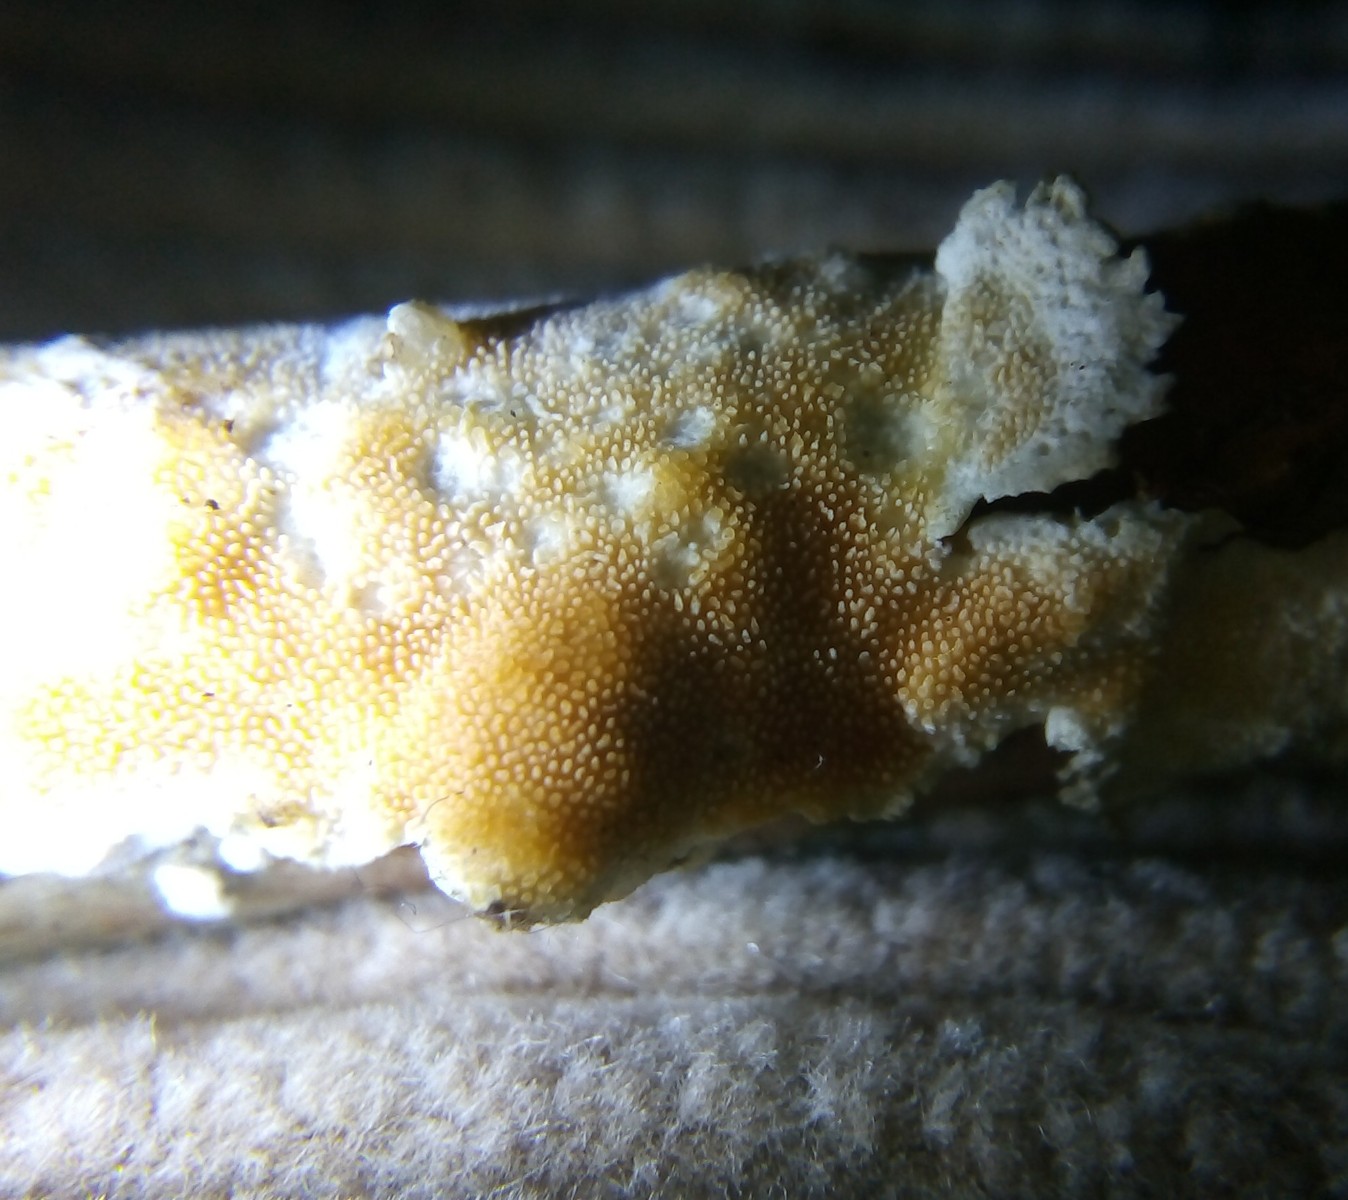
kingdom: Fungi
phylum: Basidiomycota
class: Agaricomycetes
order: Polyporales
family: Steccherinaceae
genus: Steccherinum
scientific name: Steccherinum ochraceum
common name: almindelig skønpig
